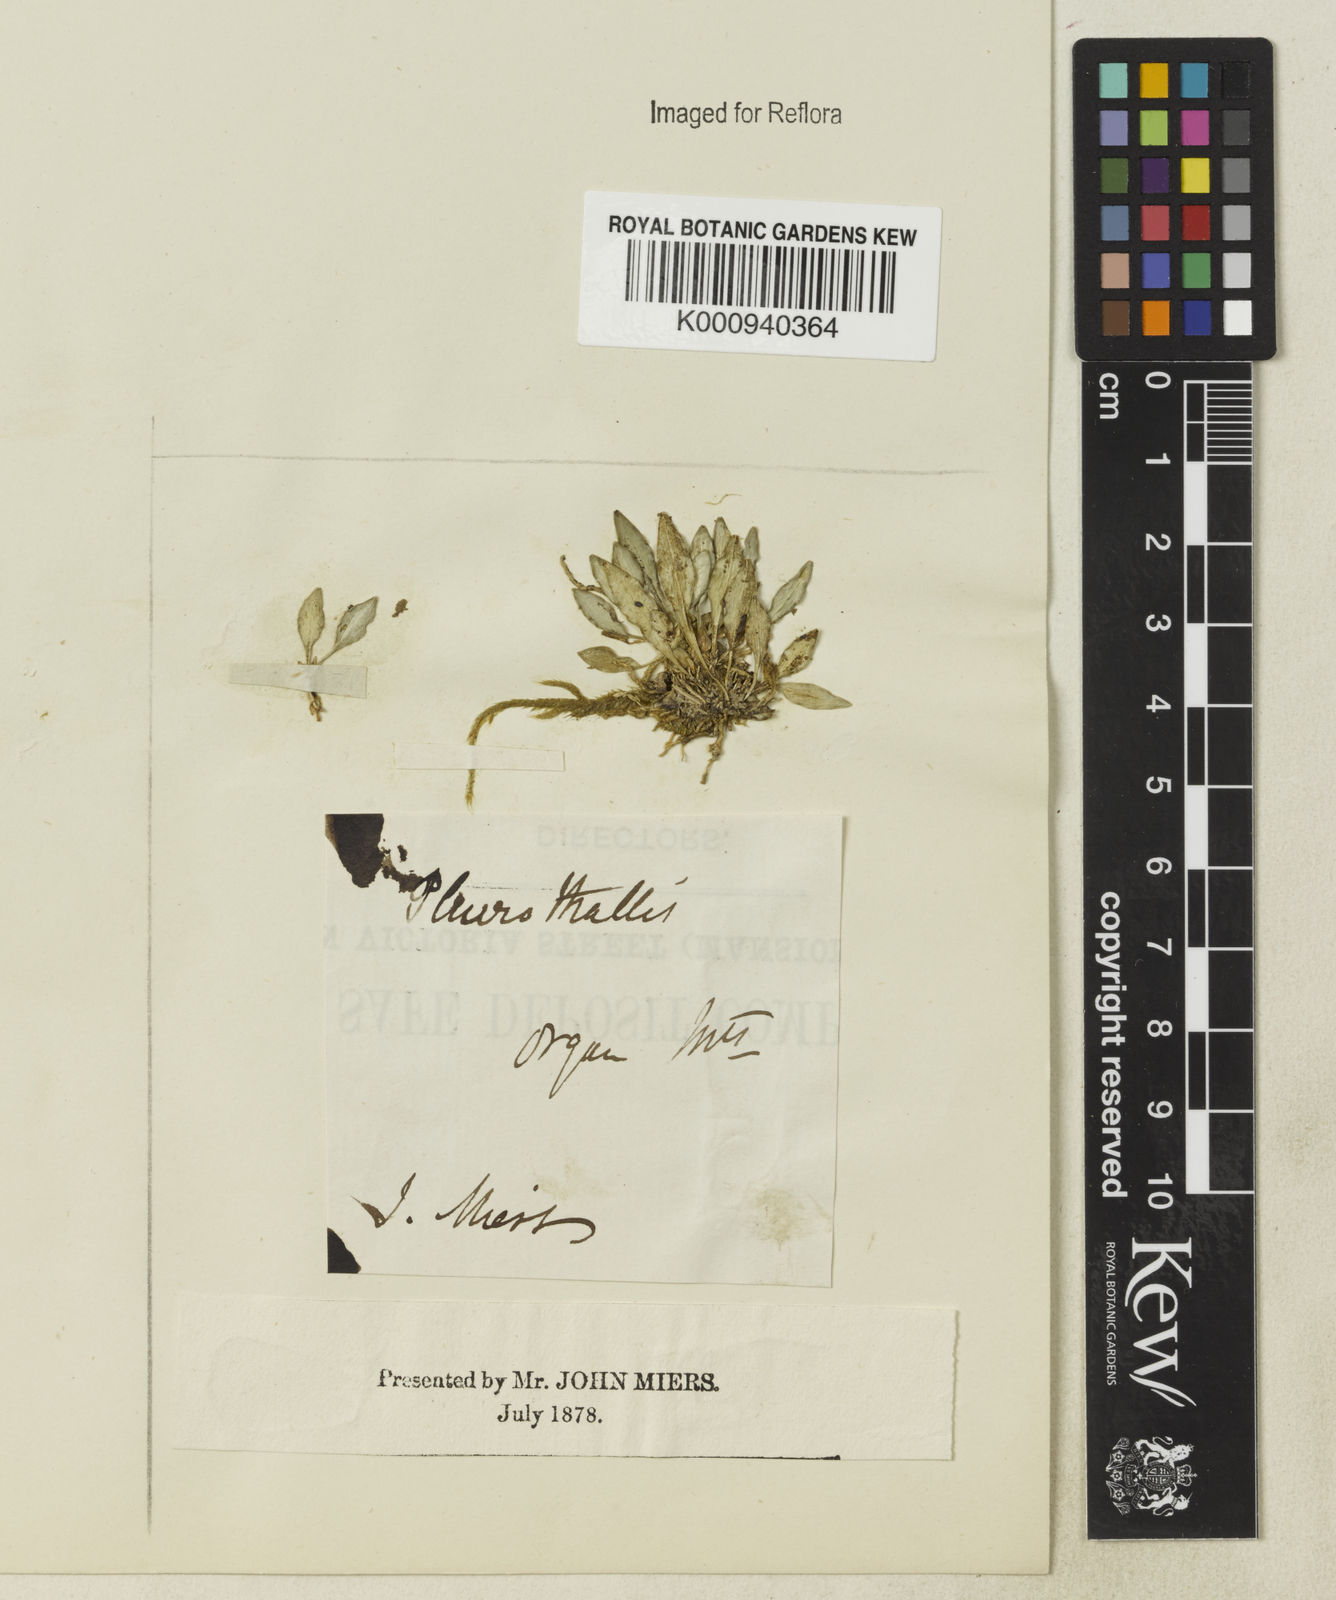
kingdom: Plantae
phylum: Tracheophyta
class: Liliopsida
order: Asparagales
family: Orchidaceae
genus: Pabstiella
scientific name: Pabstiella lingua
